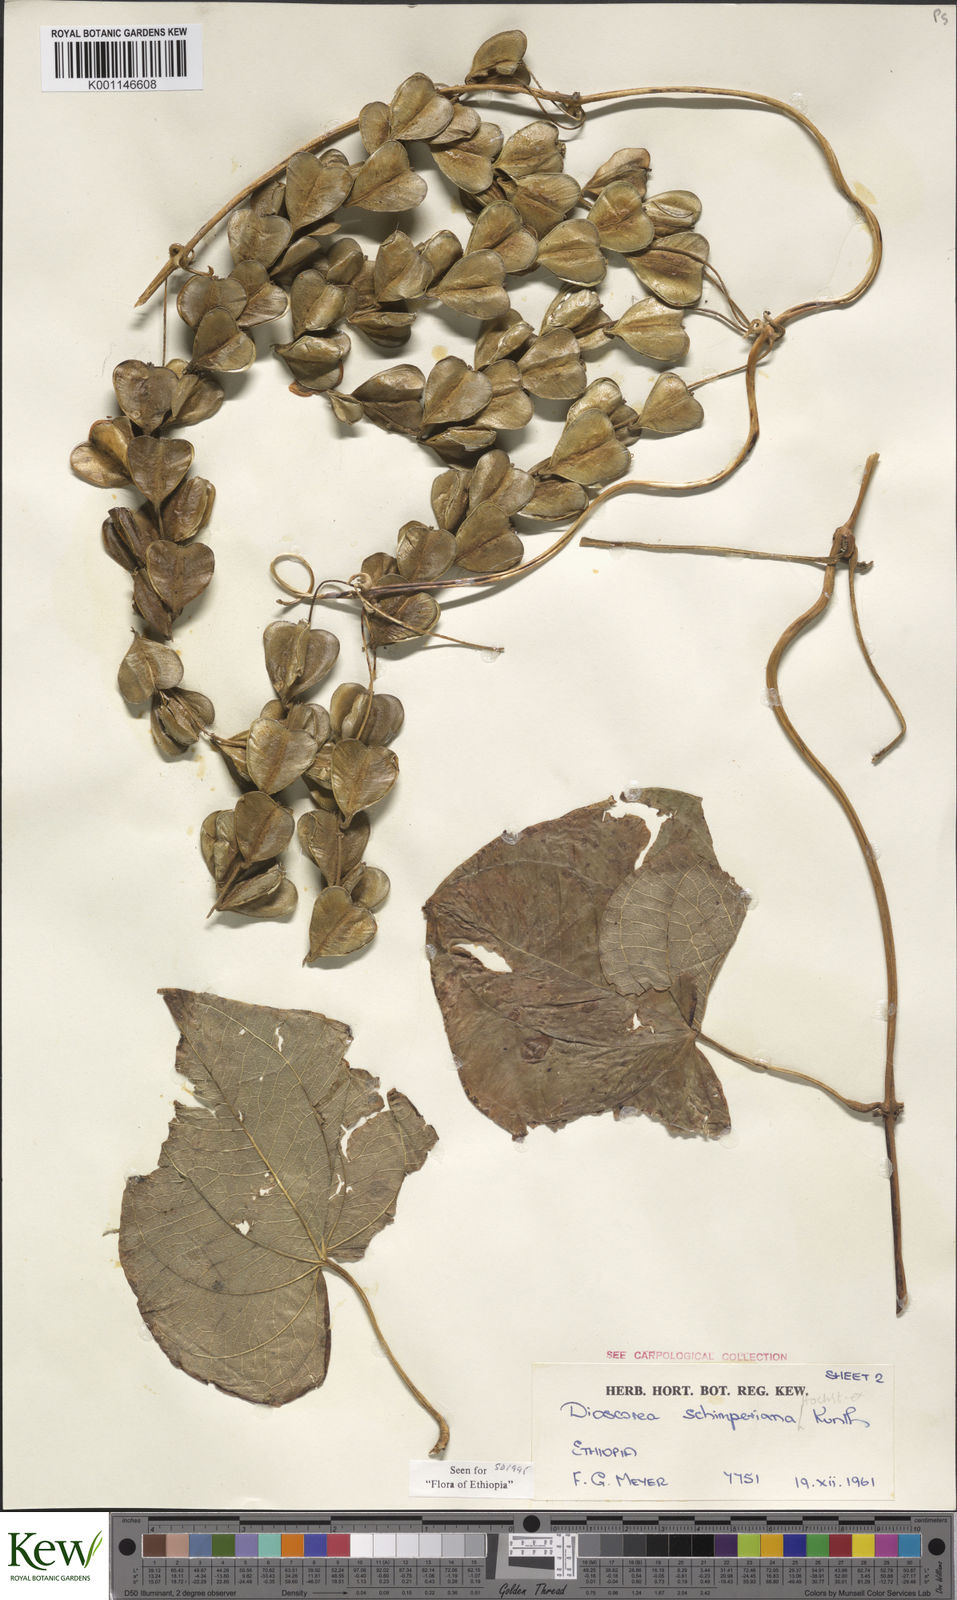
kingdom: Plantae
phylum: Tracheophyta
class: Liliopsida
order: Dioscoreales
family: Dioscoreaceae
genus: Dioscorea
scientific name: Dioscorea schimperiana
